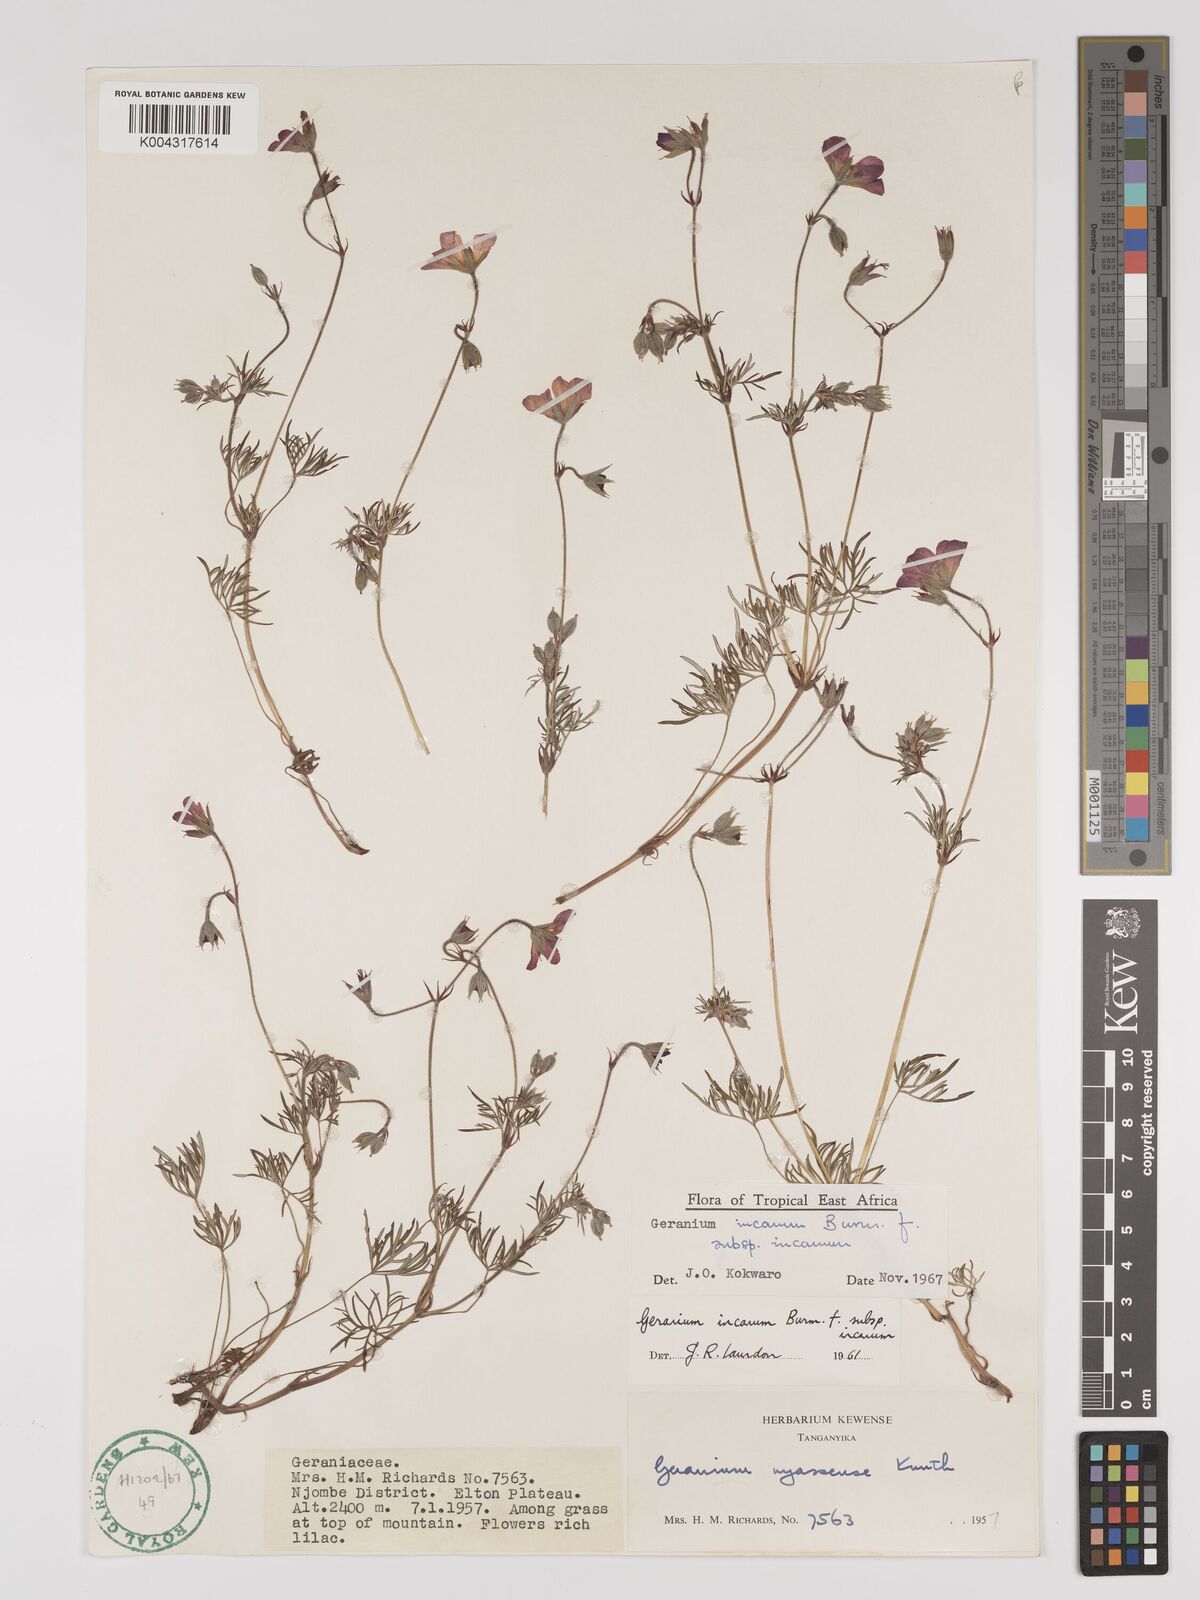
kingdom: Plantae
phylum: Tracheophyta
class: Magnoliopsida
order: Geraniales
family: Geraniaceae
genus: Geranium
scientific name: Geranium incanum
